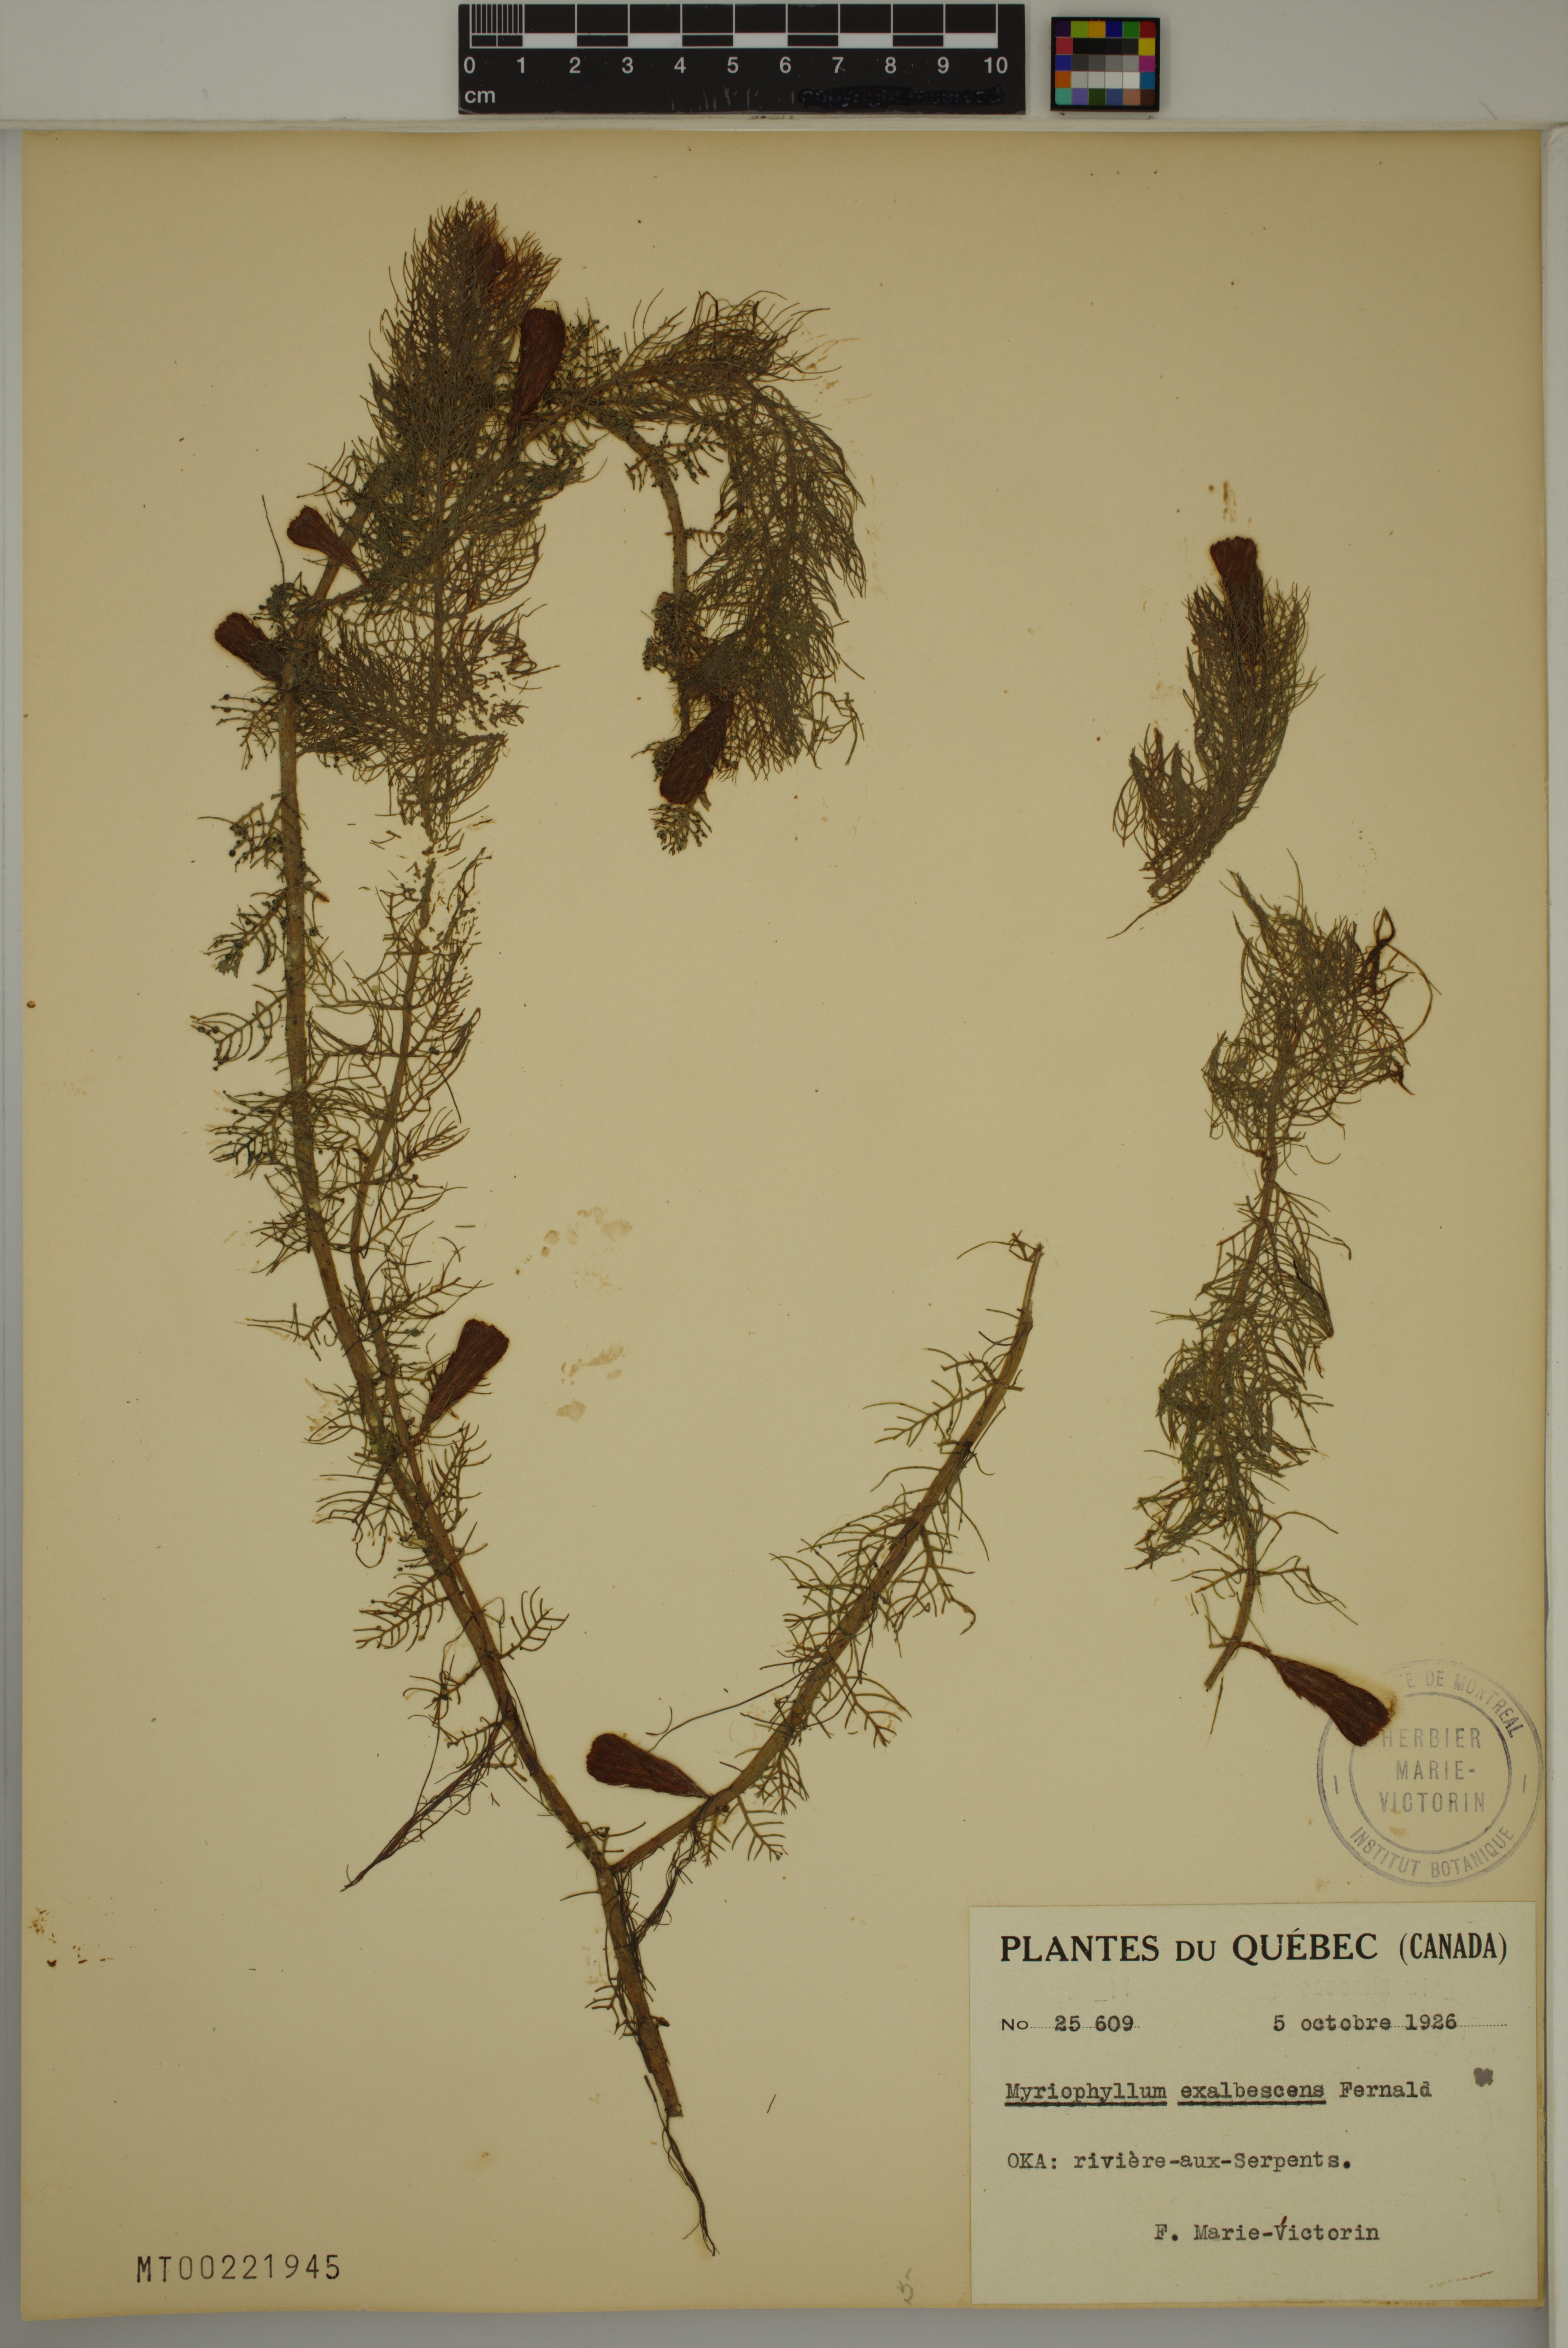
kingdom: Plantae
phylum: Tracheophyta
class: Magnoliopsida
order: Saxifragales
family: Haloragaceae
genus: Myriophyllum
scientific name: Myriophyllum sibiricum
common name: Siberian water-milfoil
